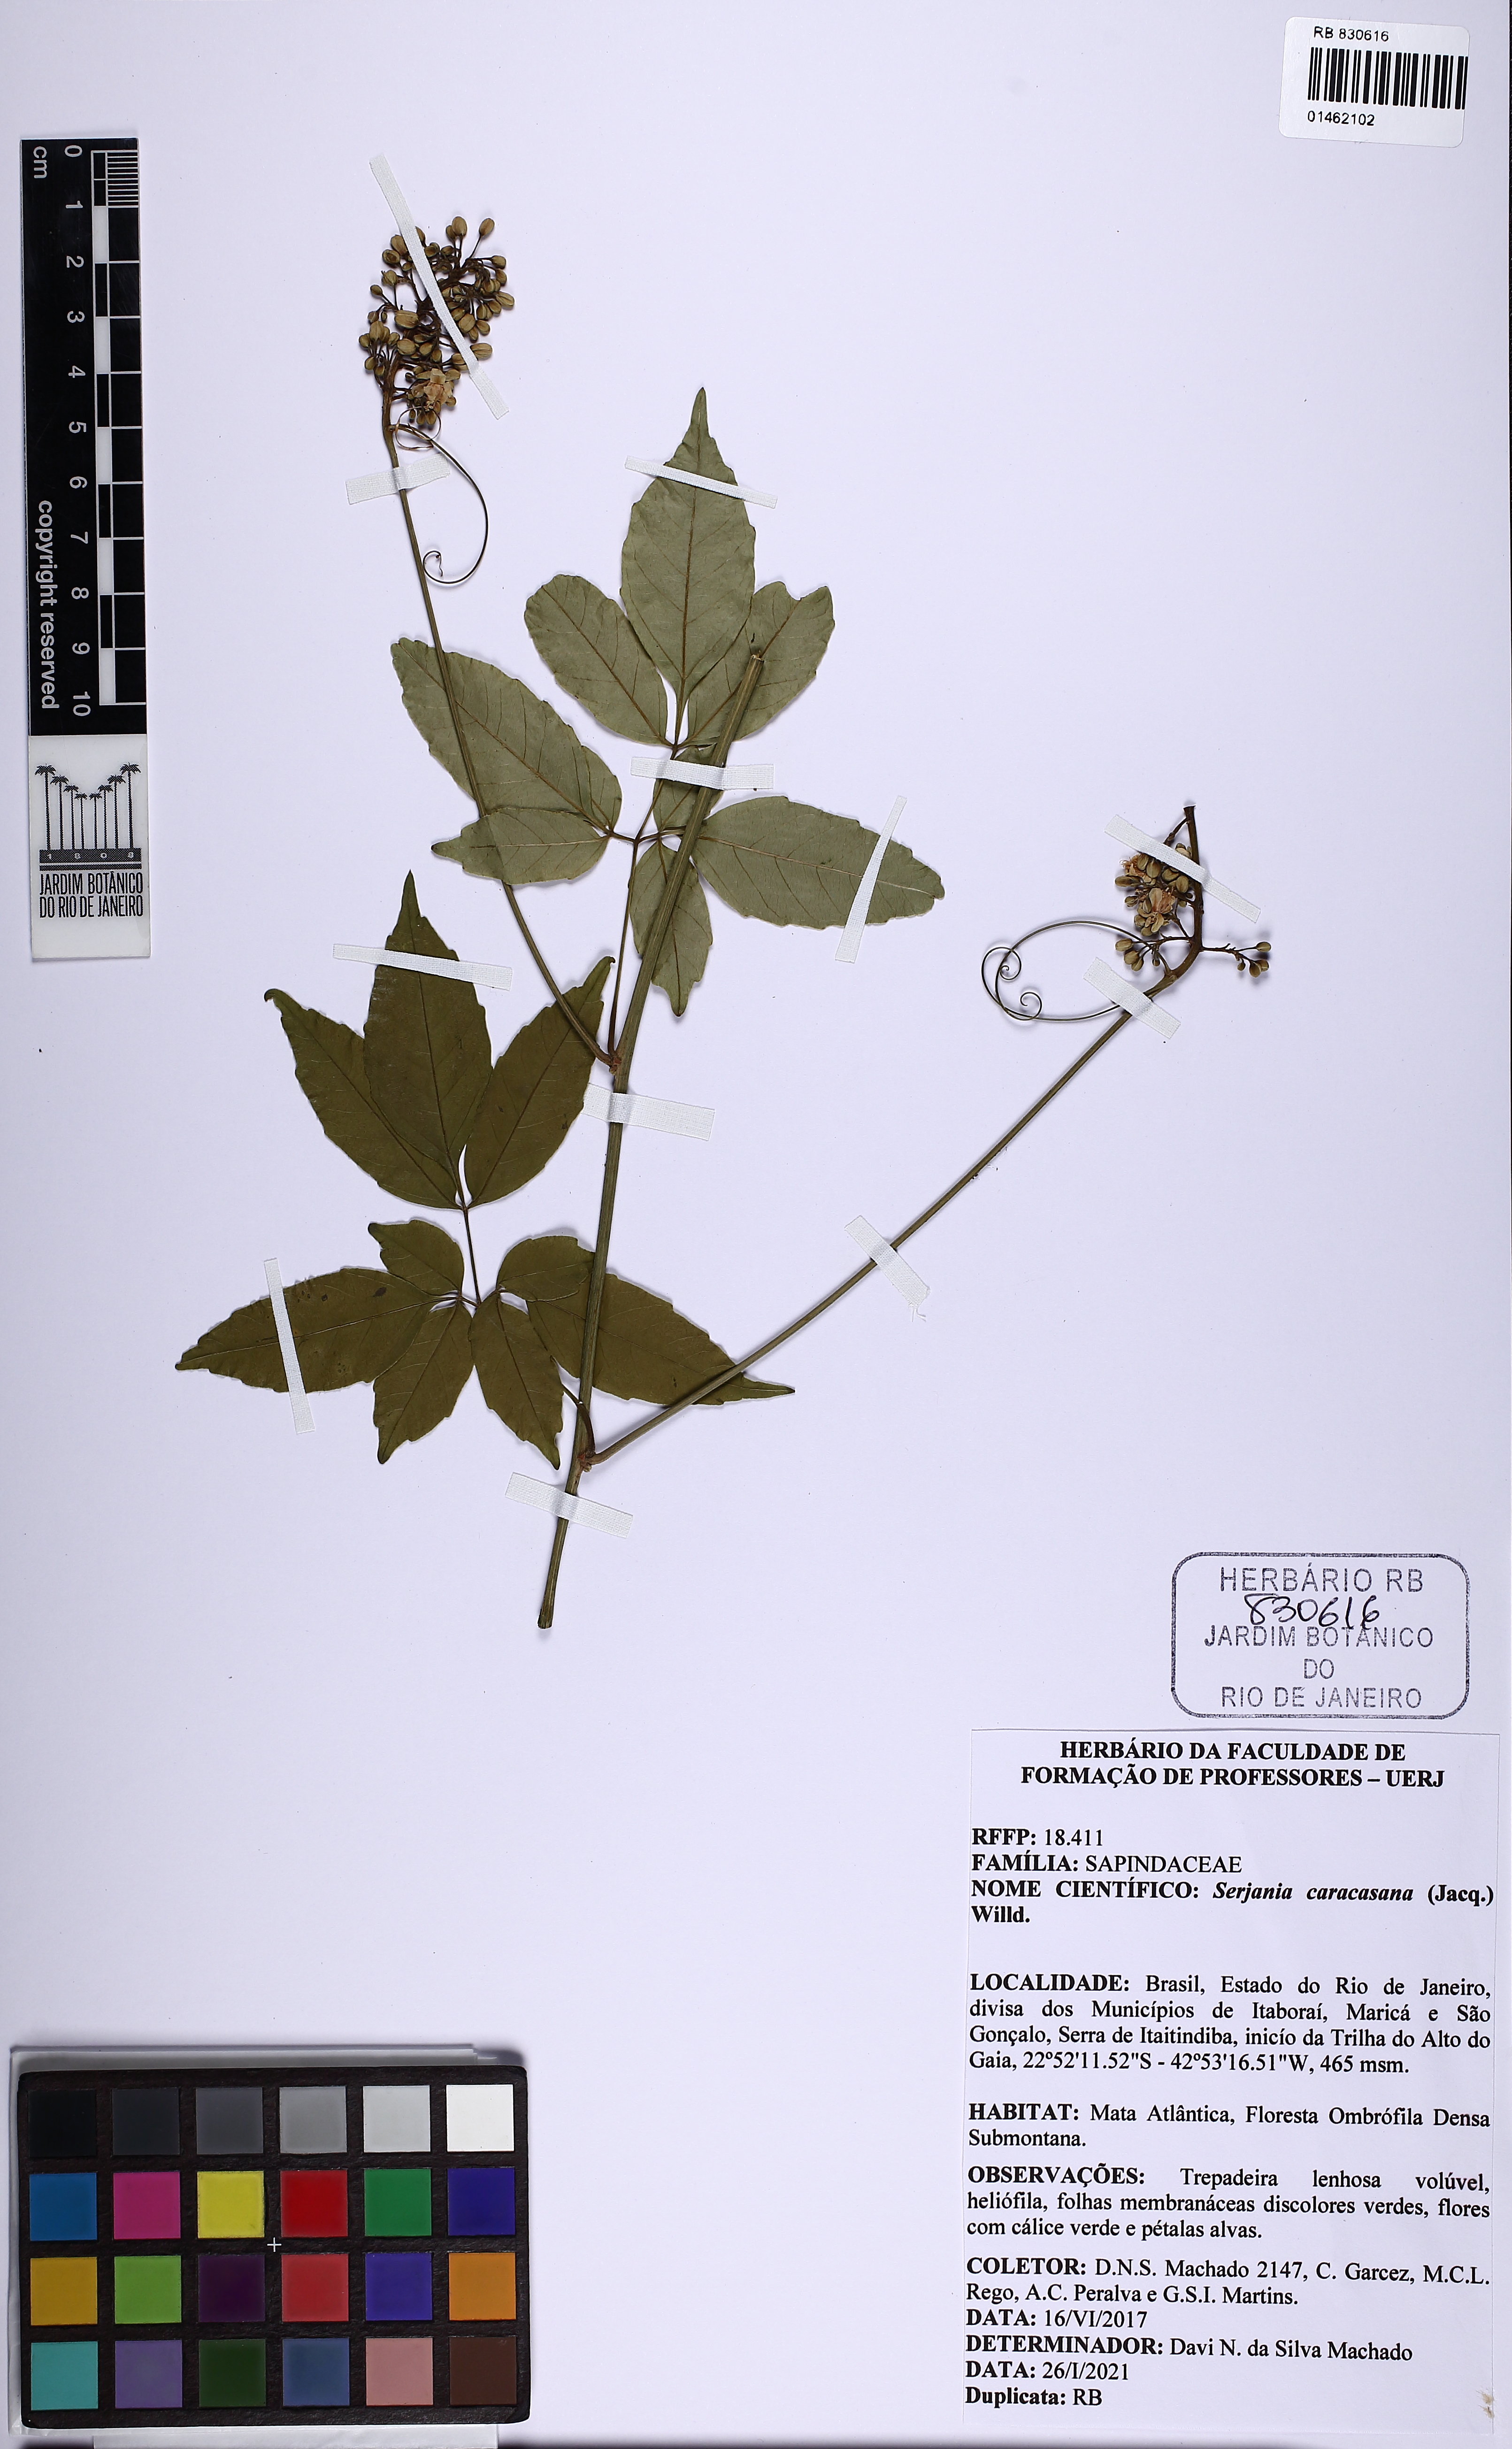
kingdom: Plantae
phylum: Tracheophyta
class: Magnoliopsida
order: Sapindales
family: Sapindaceae
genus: Serjania
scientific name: Serjania caracasana
